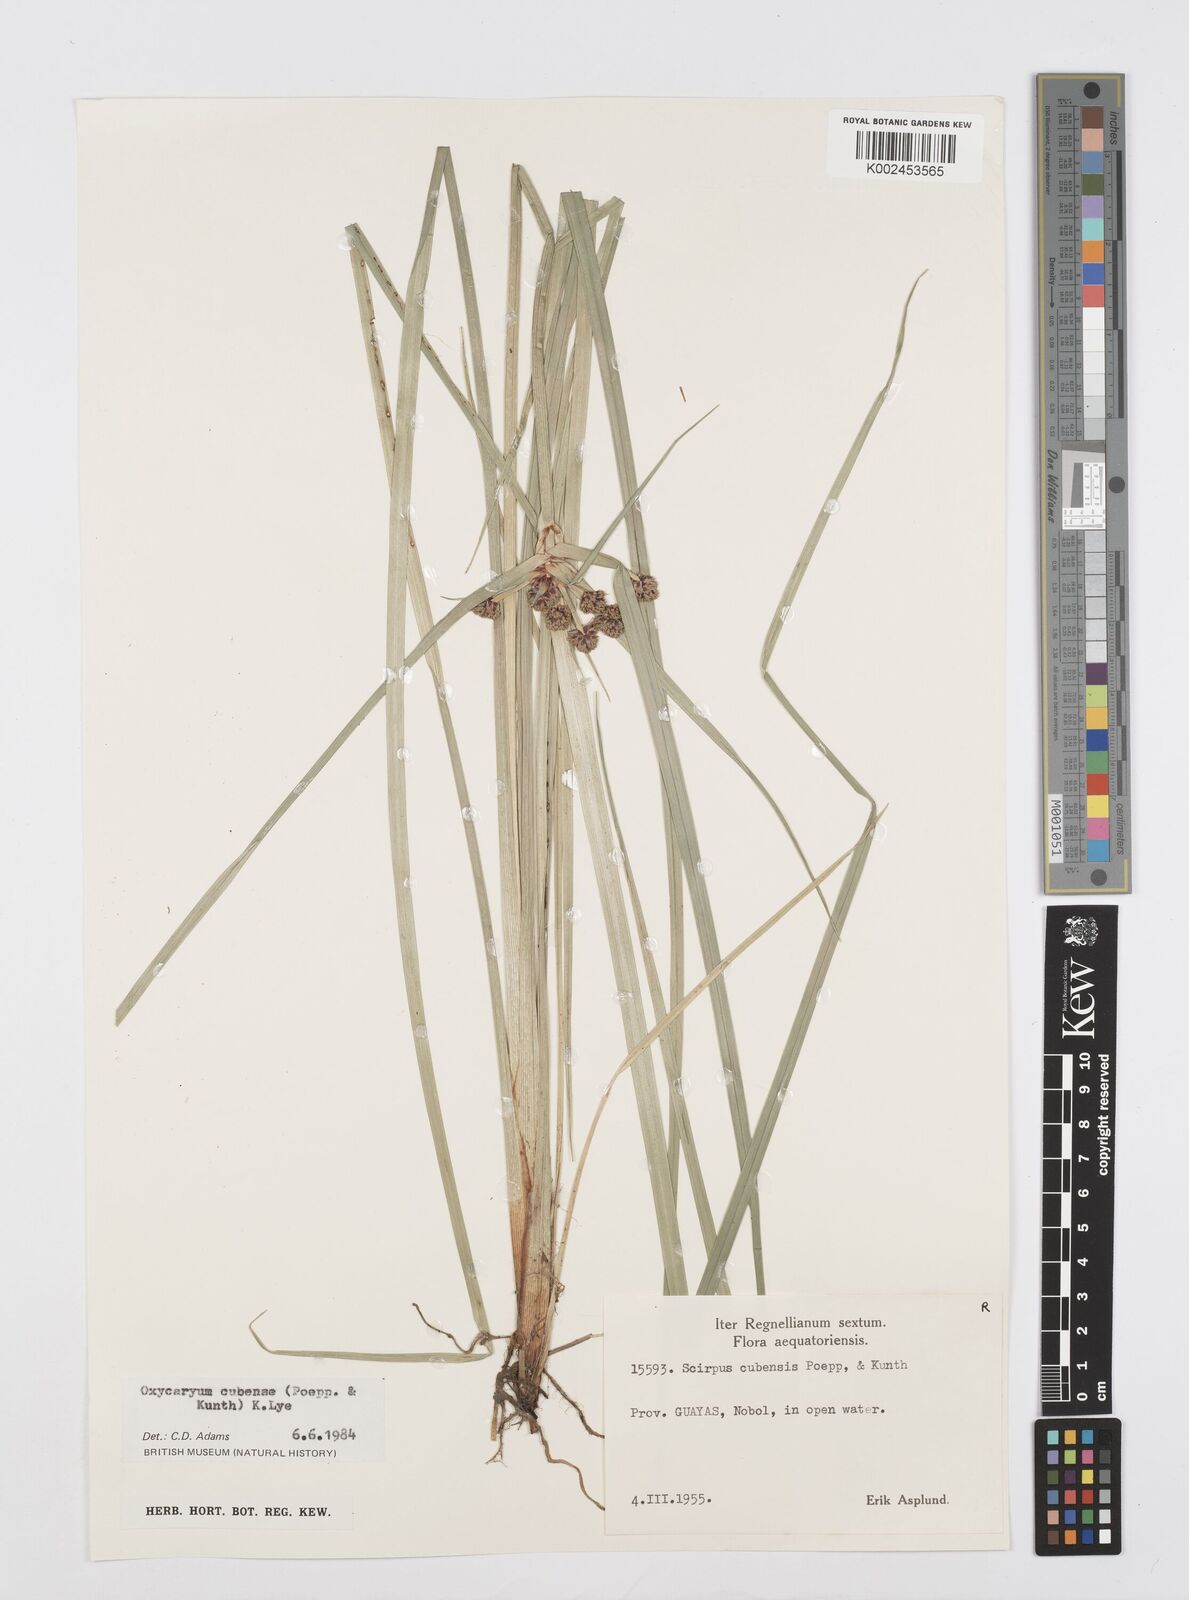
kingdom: Plantae
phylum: Tracheophyta
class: Liliopsida
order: Poales
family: Cyperaceae
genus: Cyperus
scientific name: Cyperus elegans
